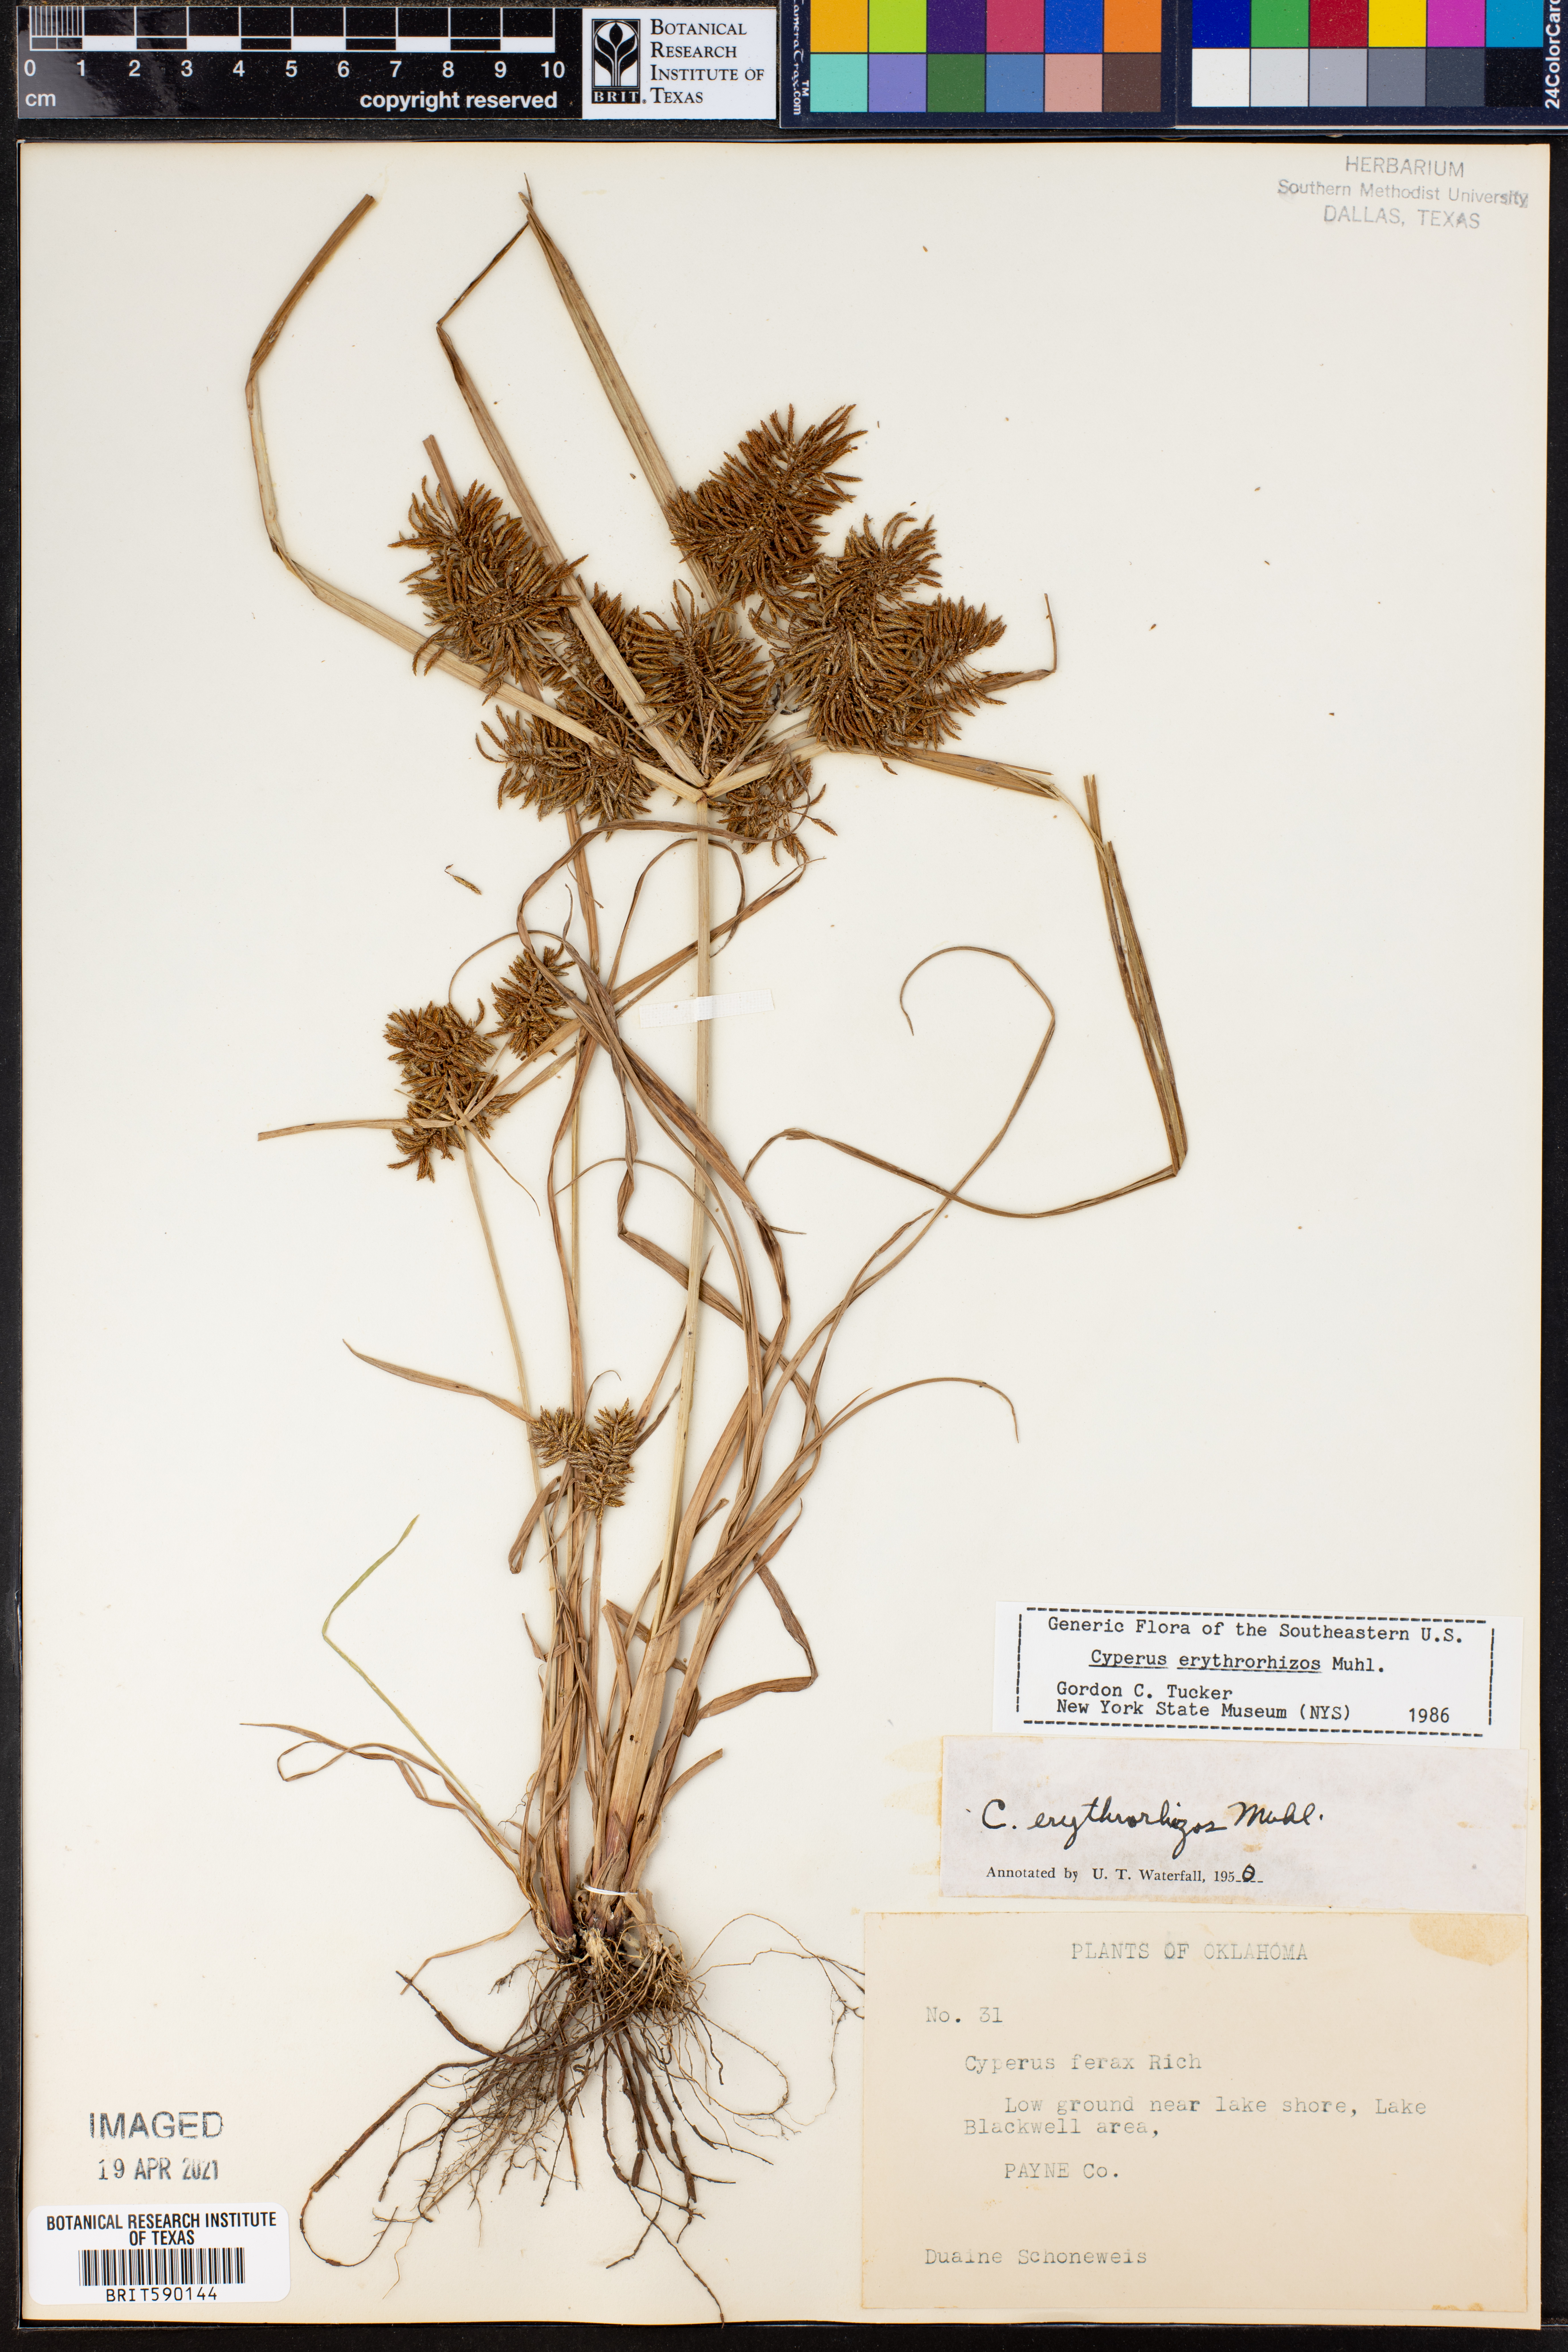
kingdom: Plantae
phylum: Tracheophyta
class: Liliopsida
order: Poales
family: Cyperaceae
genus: Cyperus
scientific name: Cyperus erythrorhizos
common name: Red-root flat sedge
